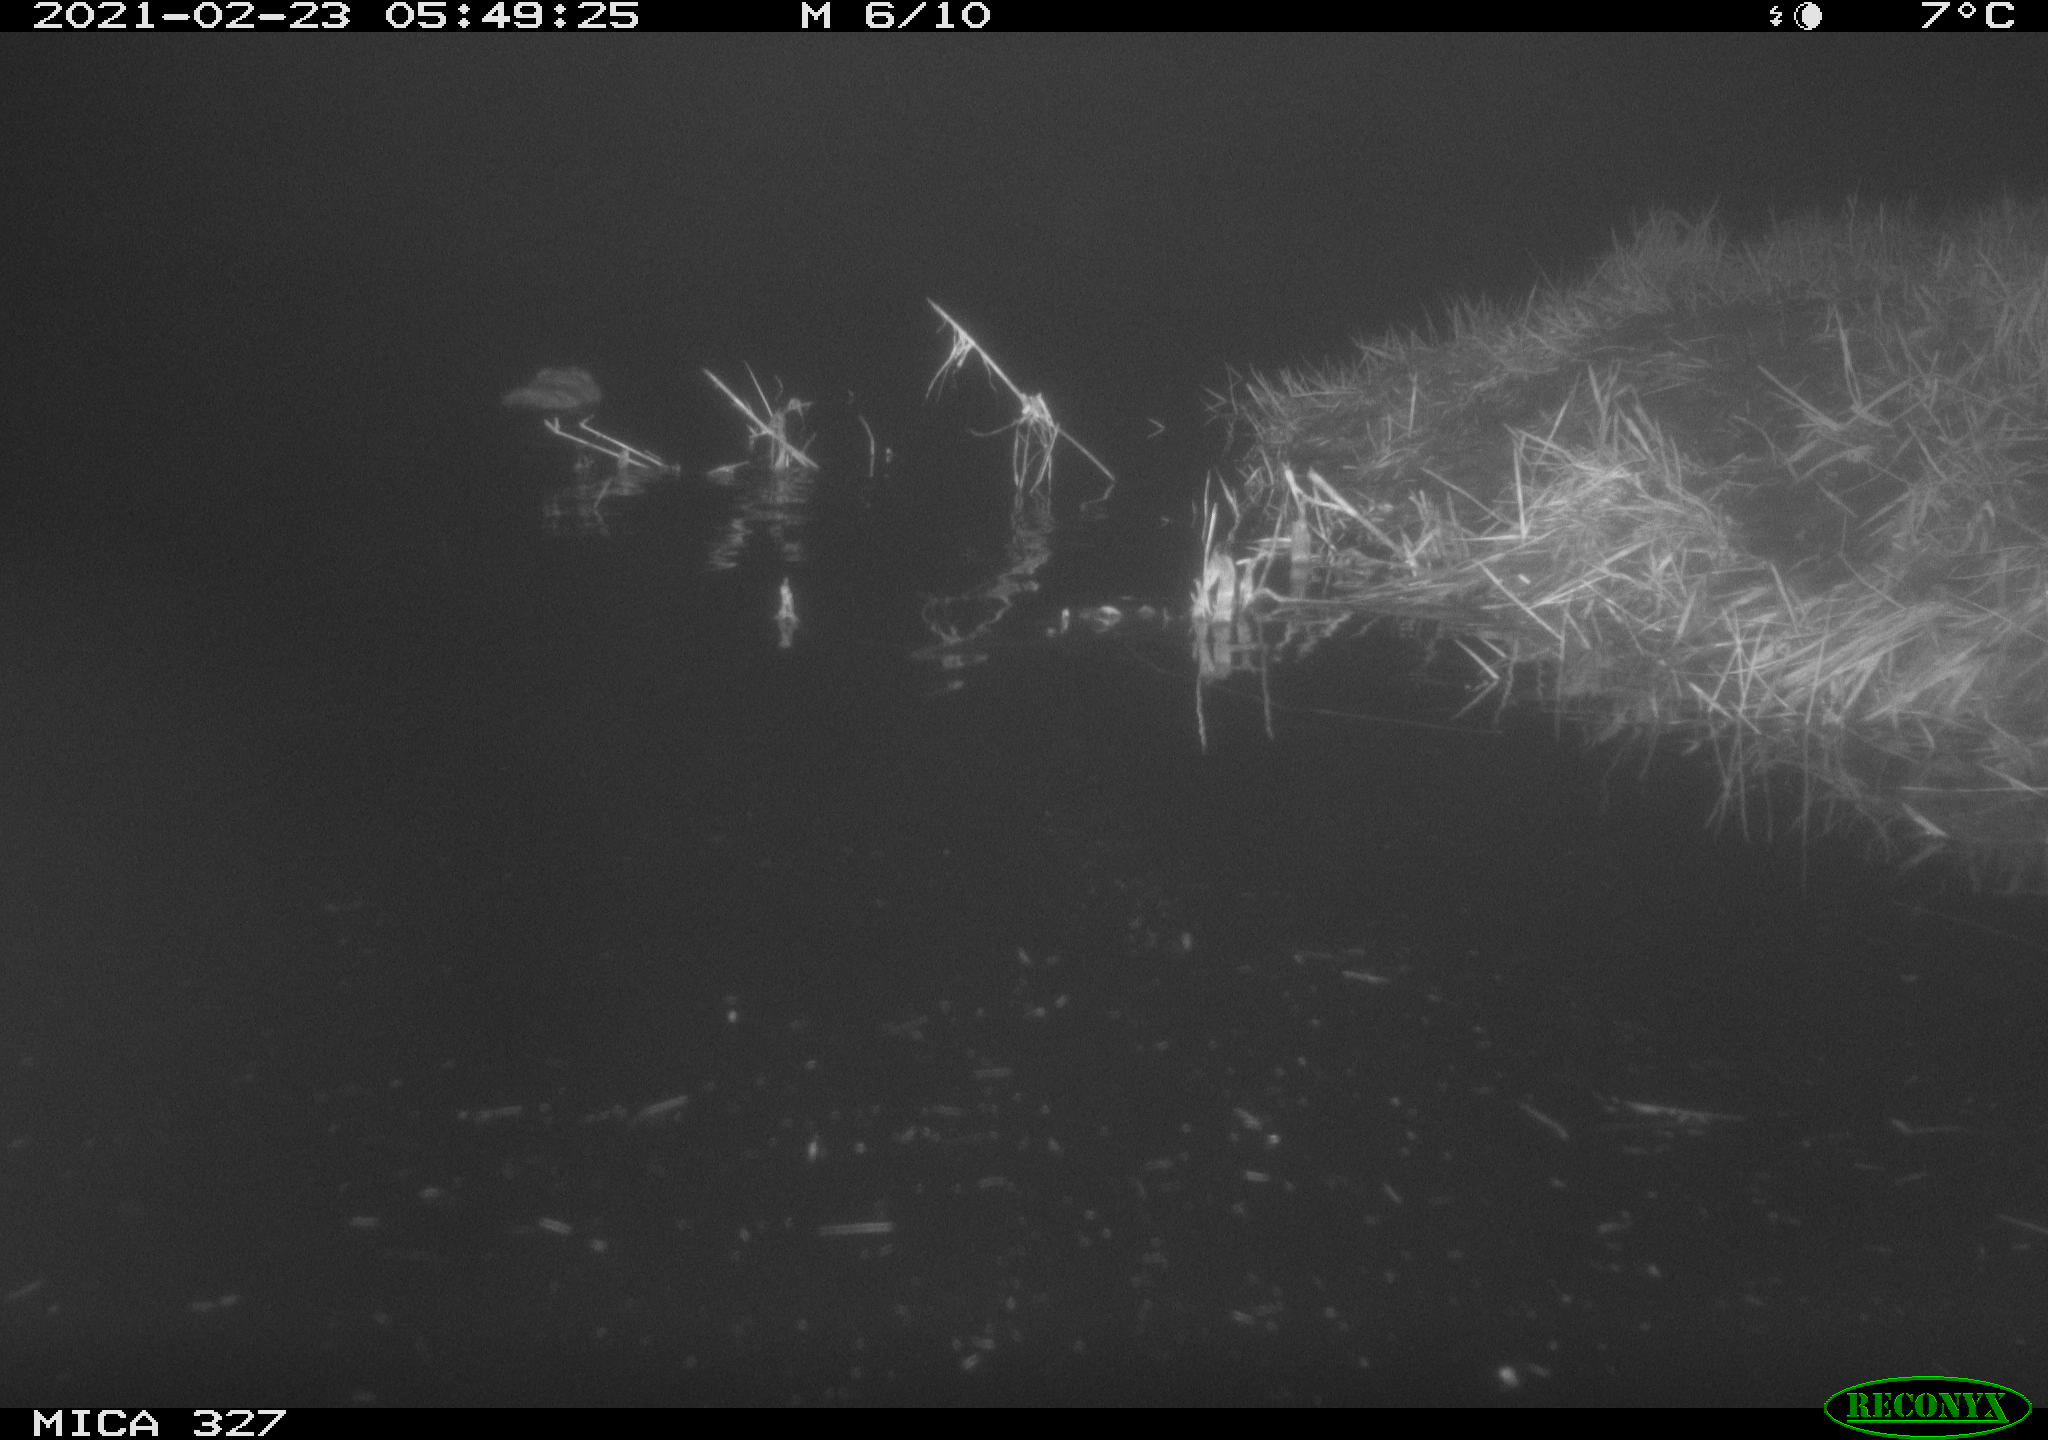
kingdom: Animalia
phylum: Chordata
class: Mammalia
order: Rodentia
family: Cricetidae
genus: Ondatra
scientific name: Ondatra zibethicus
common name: Muskrat
